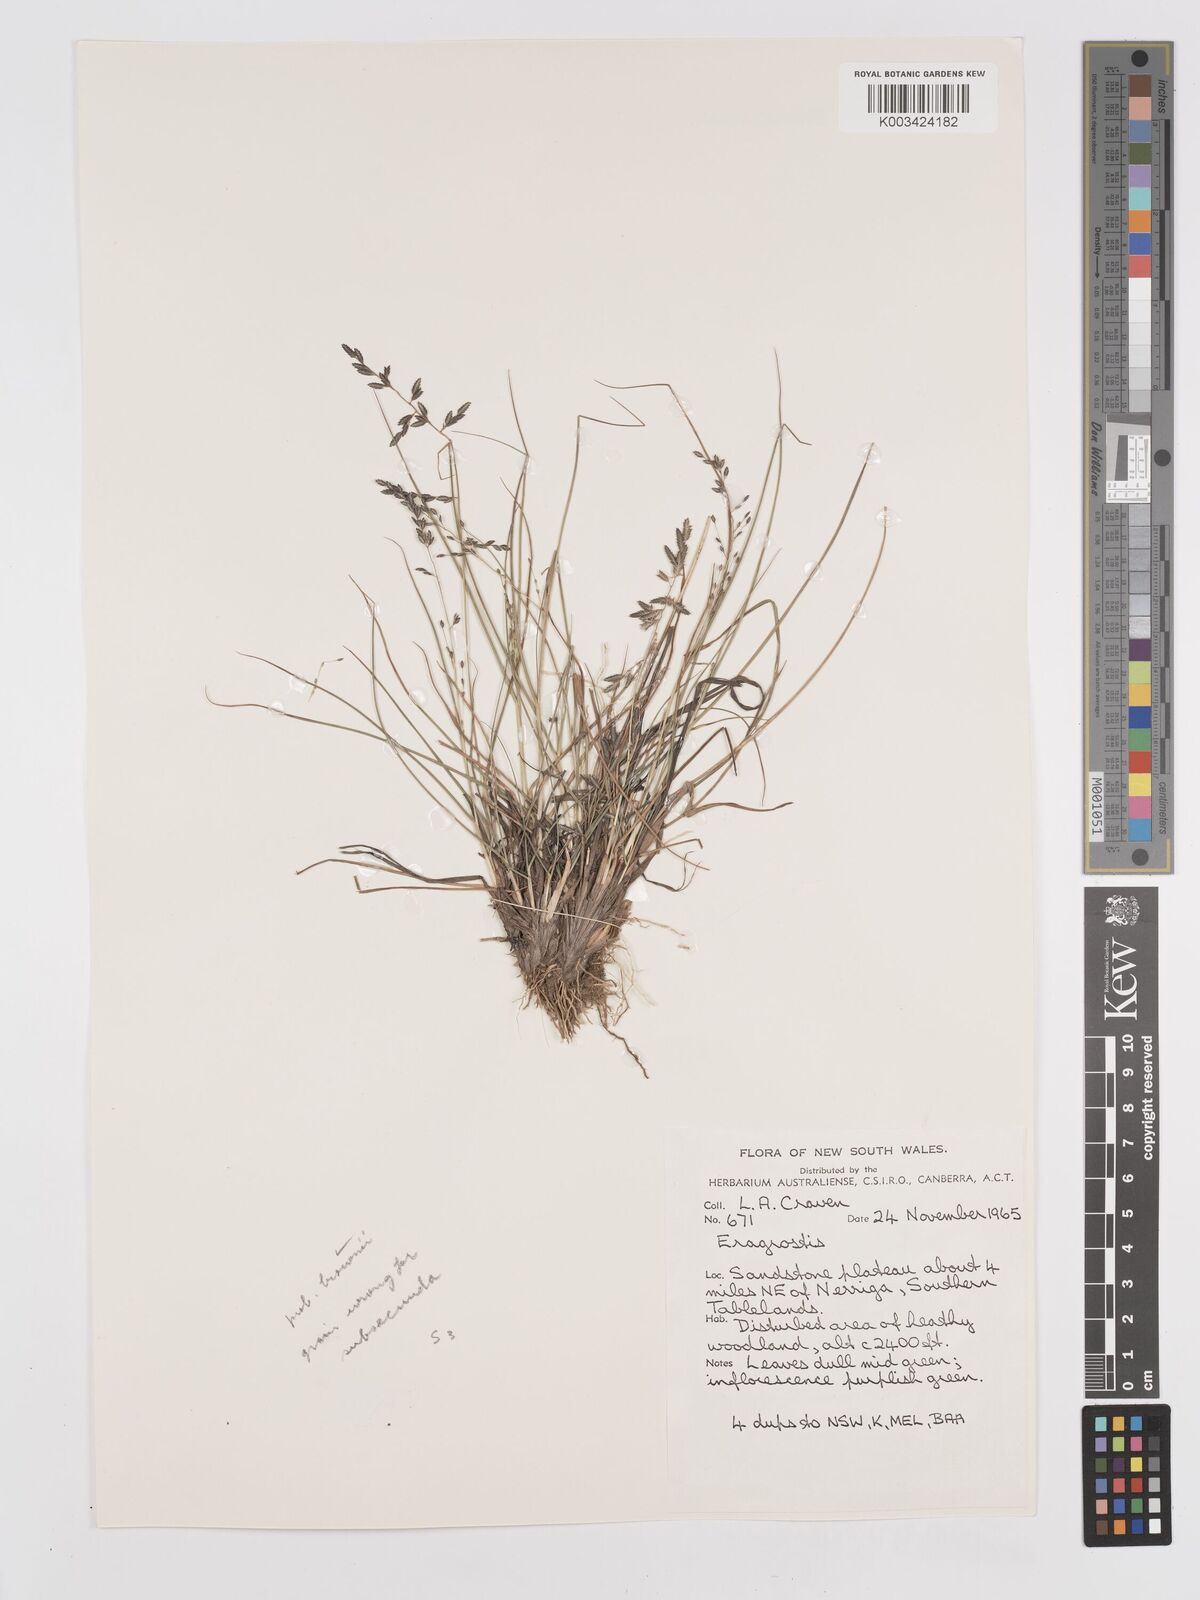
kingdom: Plantae
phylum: Tracheophyta
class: Liliopsida
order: Poales
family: Poaceae
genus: Eragrostis
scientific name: Eragrostis brownii
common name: Lovegrass
